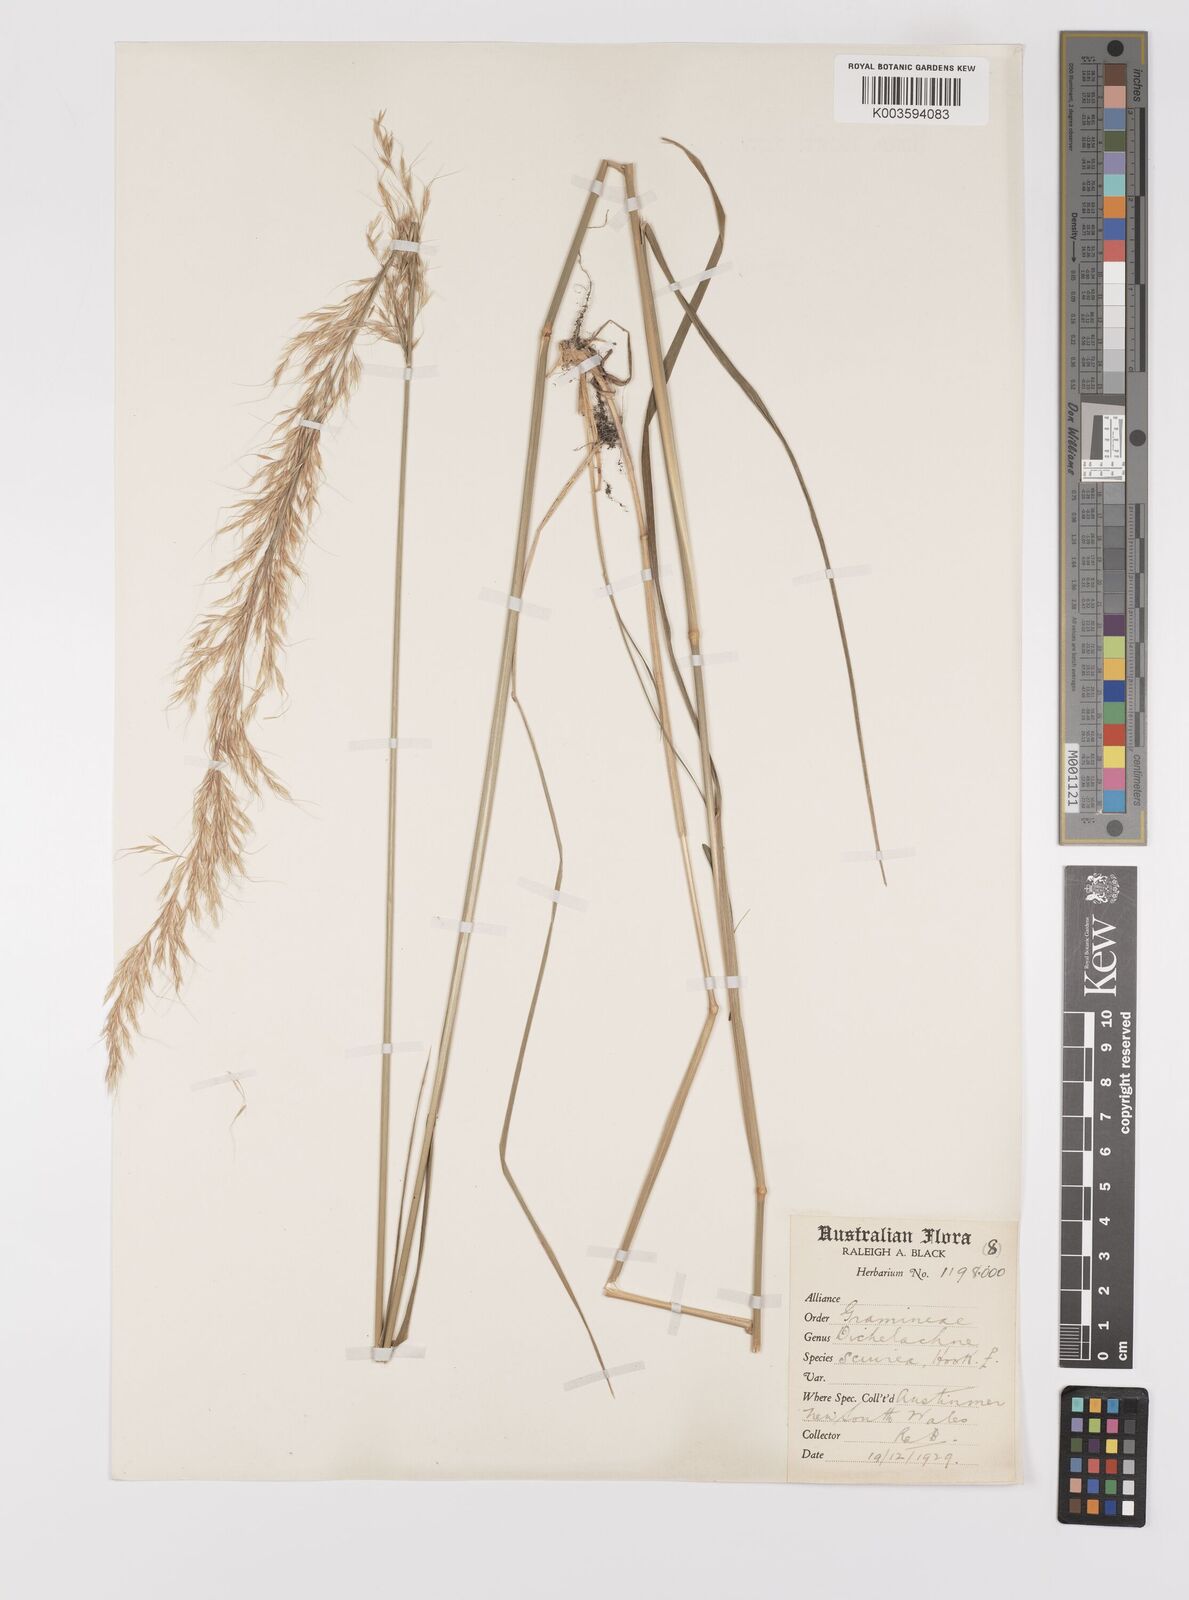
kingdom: Plantae
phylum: Tracheophyta
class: Liliopsida
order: Poales
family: Poaceae
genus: Dichelachne
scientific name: Dichelachne rara
